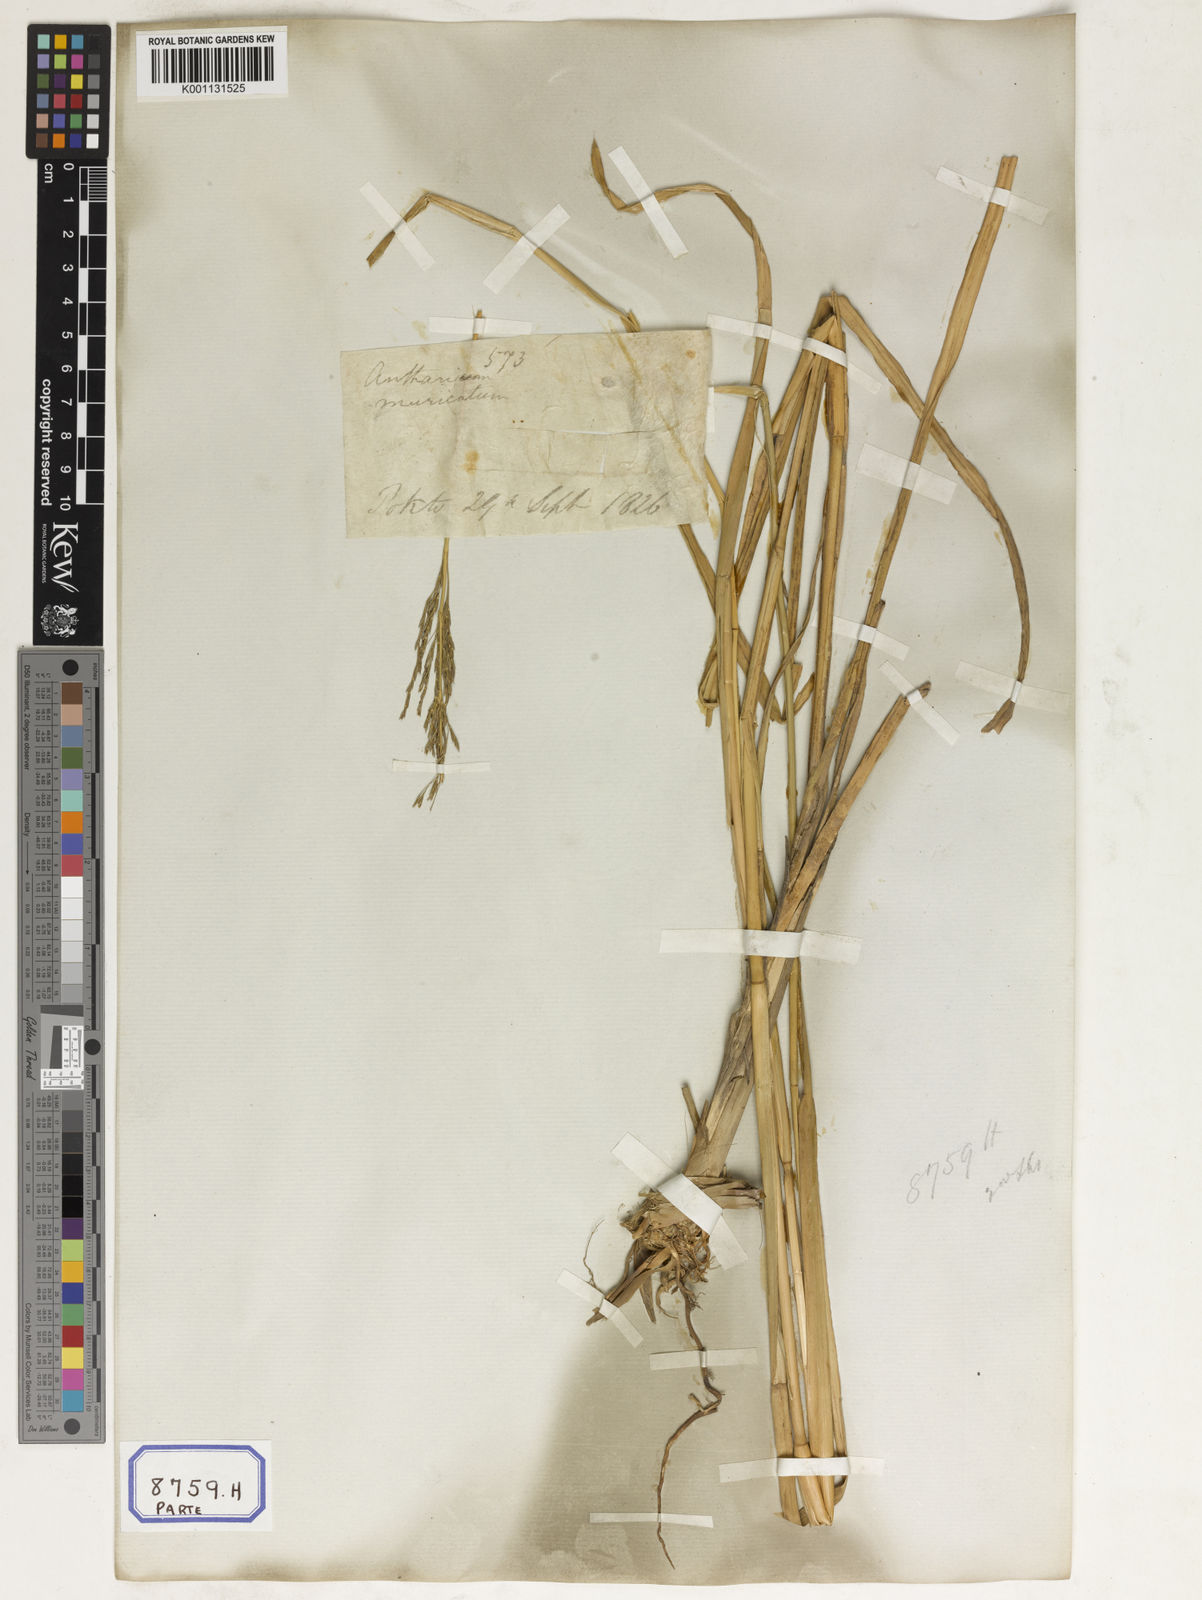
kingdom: Plantae
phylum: Tracheophyta
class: Liliopsida
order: Poales
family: Poaceae
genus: Chrysopogon
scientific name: Chrysopogon zizanioides
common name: False beardgrass
